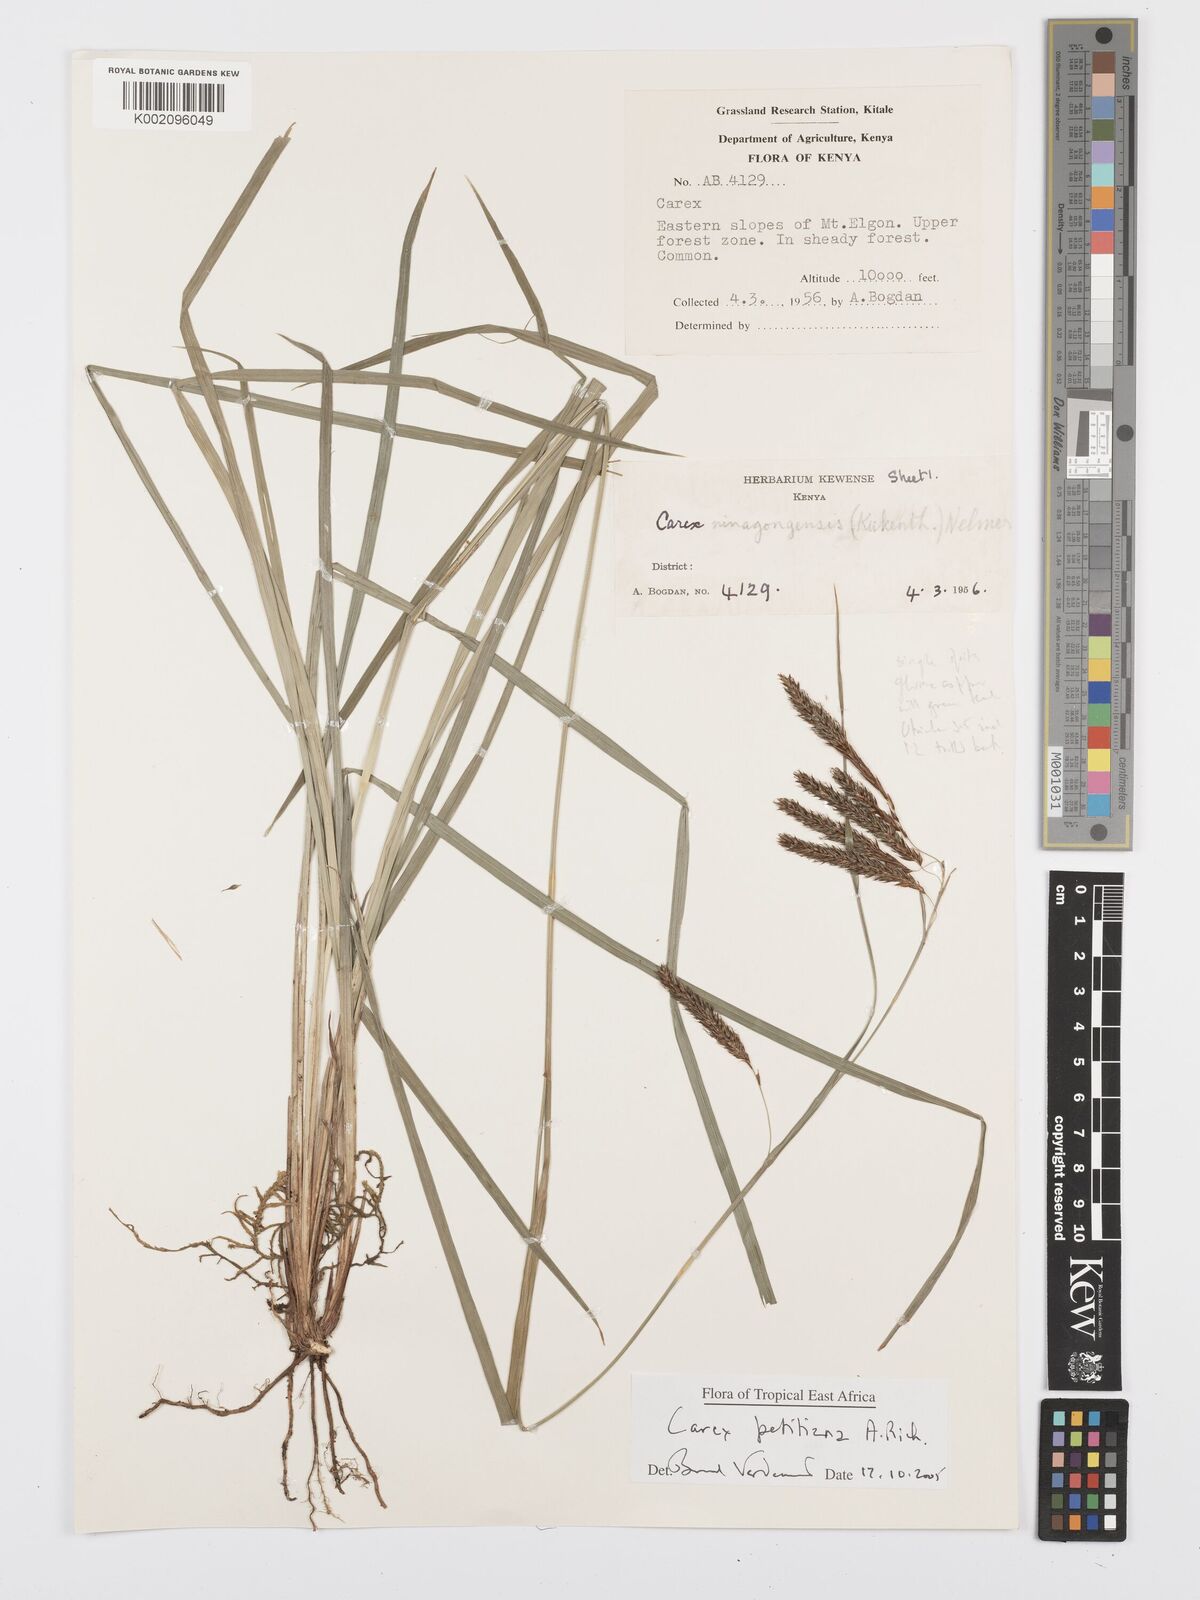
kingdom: Plantae
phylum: Tracheophyta
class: Liliopsida
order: Poales
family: Cyperaceae
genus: Carex
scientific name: Carex petitiana
